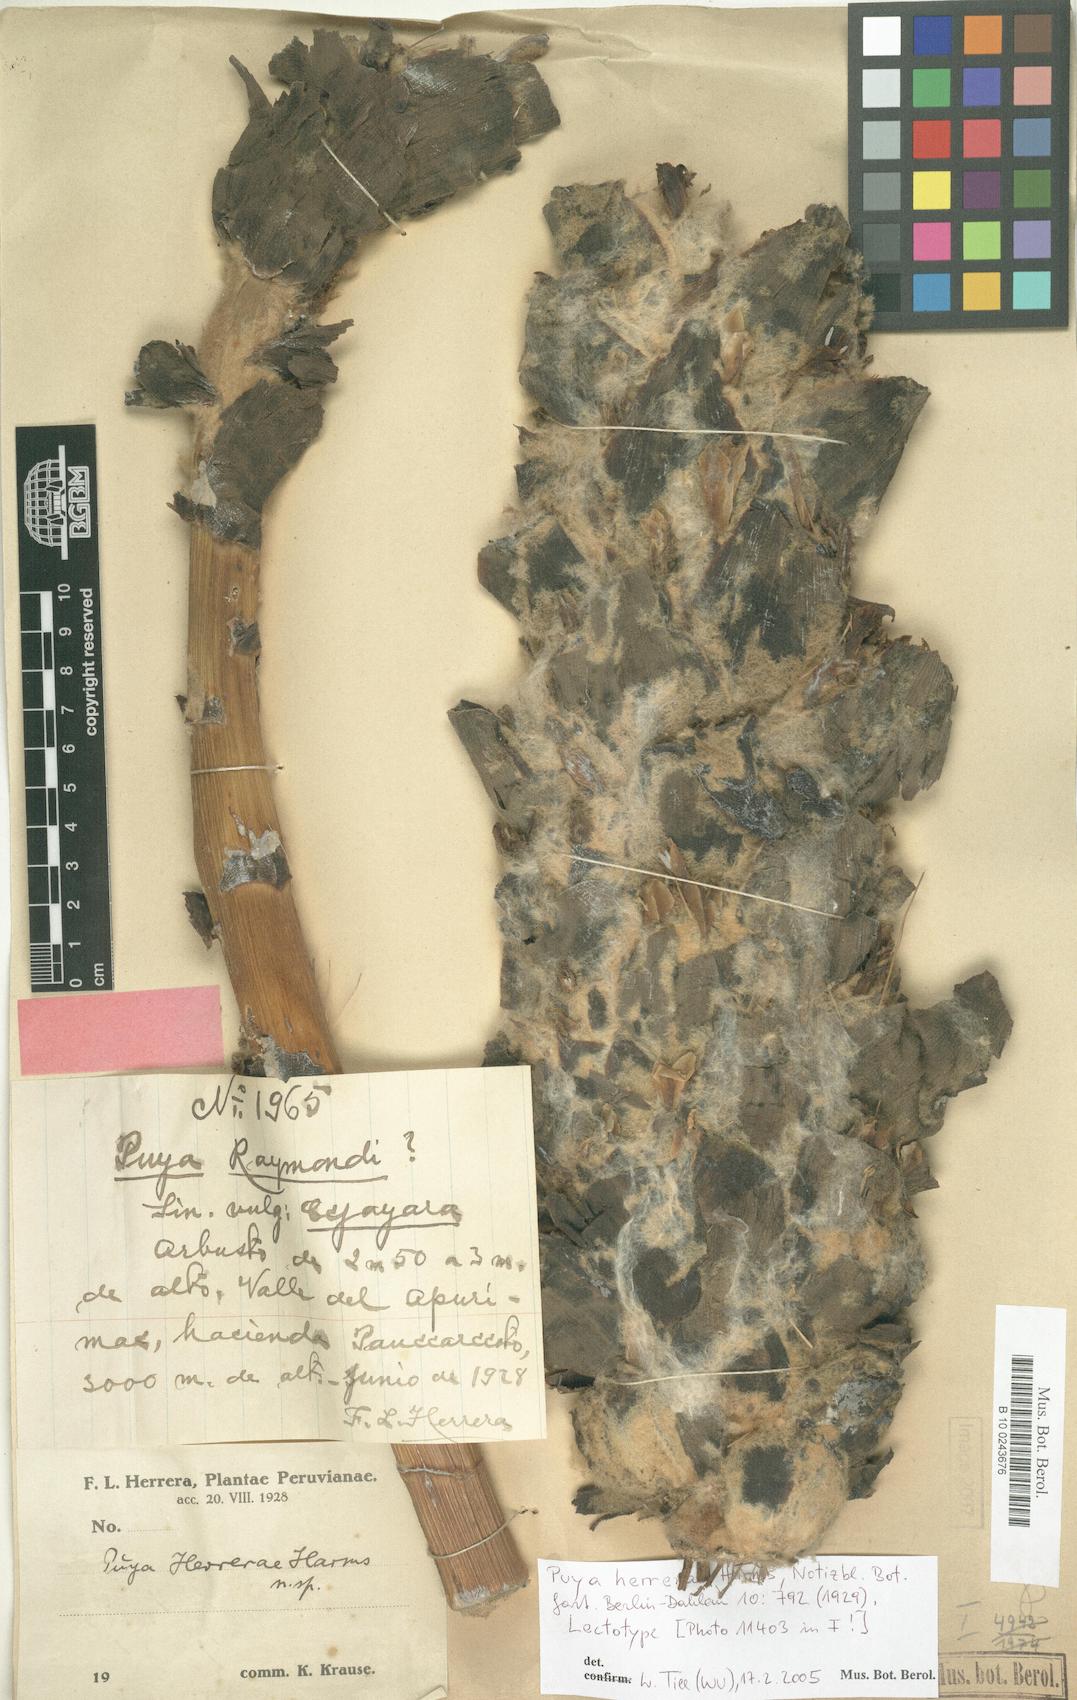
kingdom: Plantae
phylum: Tracheophyta
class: Liliopsida
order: Poales
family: Bromeliaceae
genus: Puya
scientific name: Puya herrerae
